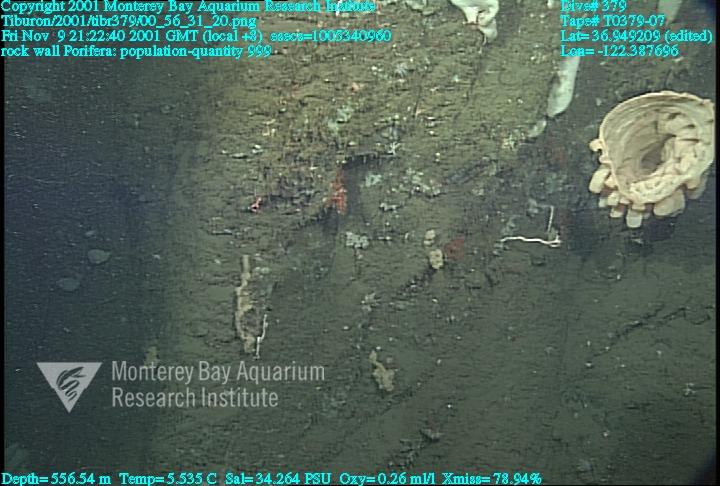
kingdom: Animalia
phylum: Porifera
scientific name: Porifera
